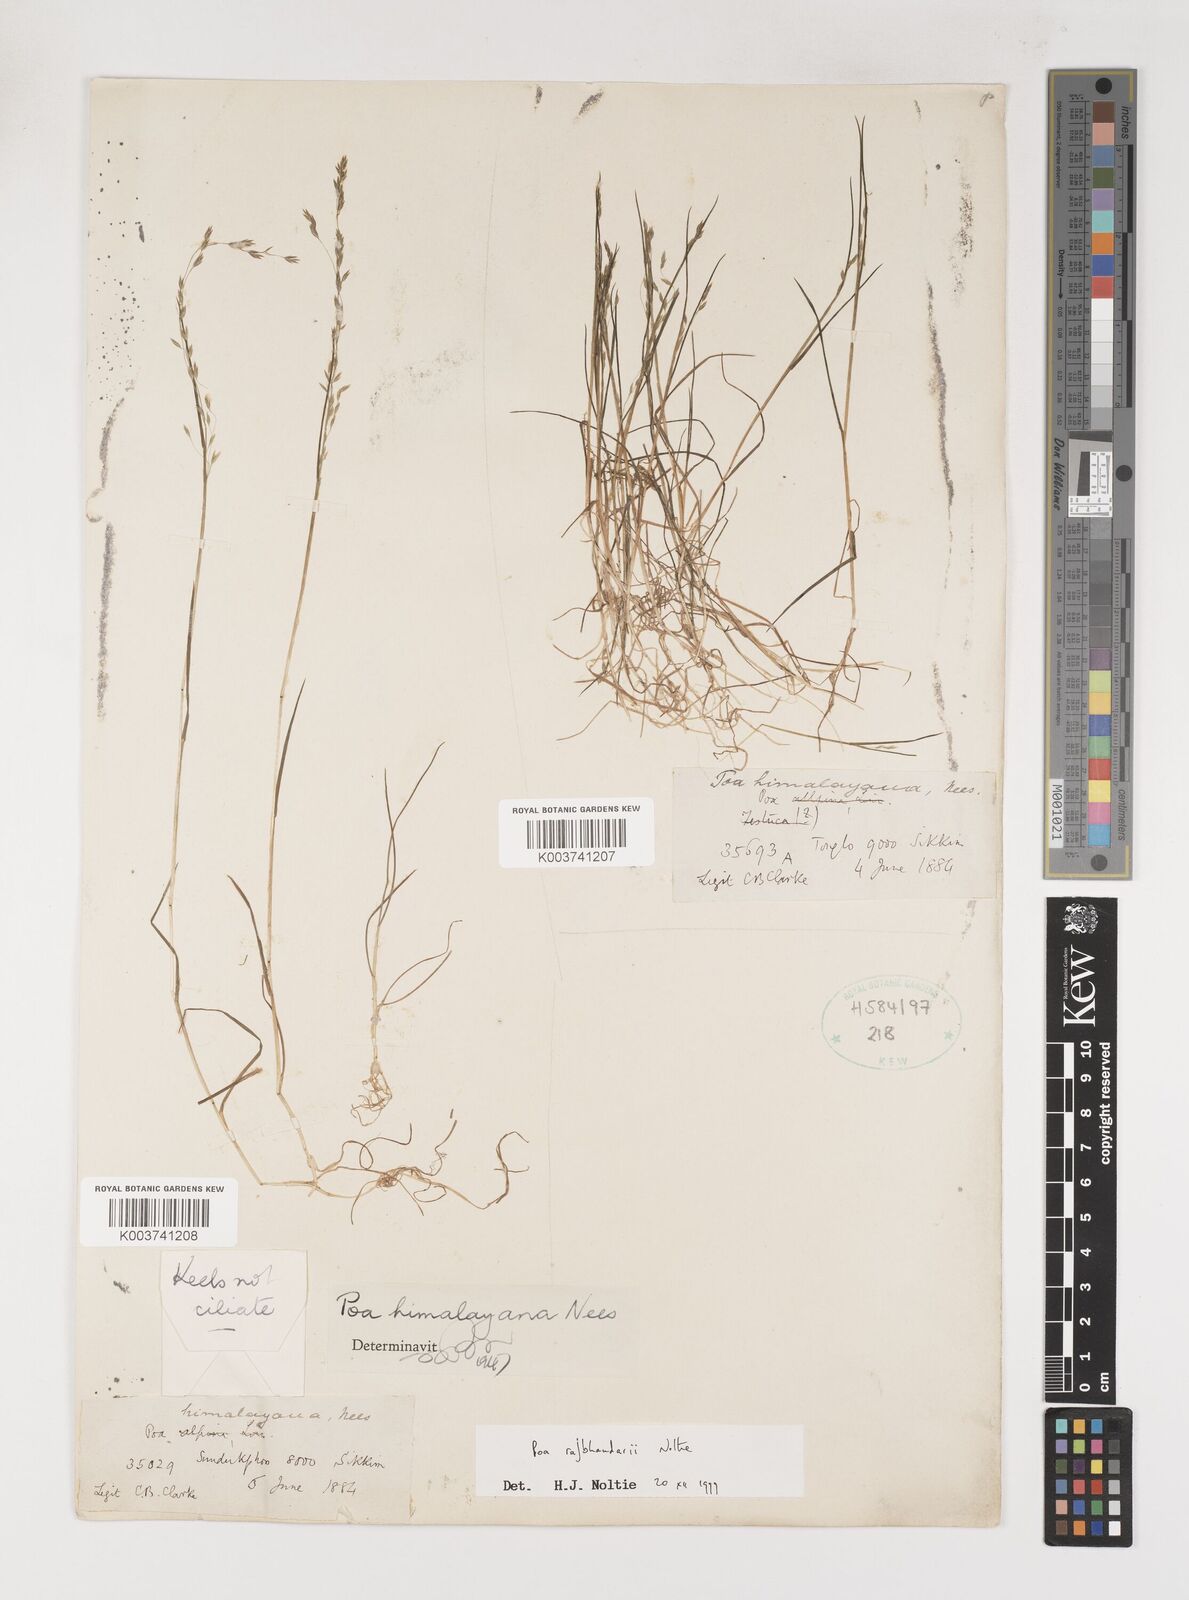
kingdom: Plantae
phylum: Tracheophyta
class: Liliopsida
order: Poales
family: Poaceae
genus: Poa
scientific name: Poa rajbhandarii
